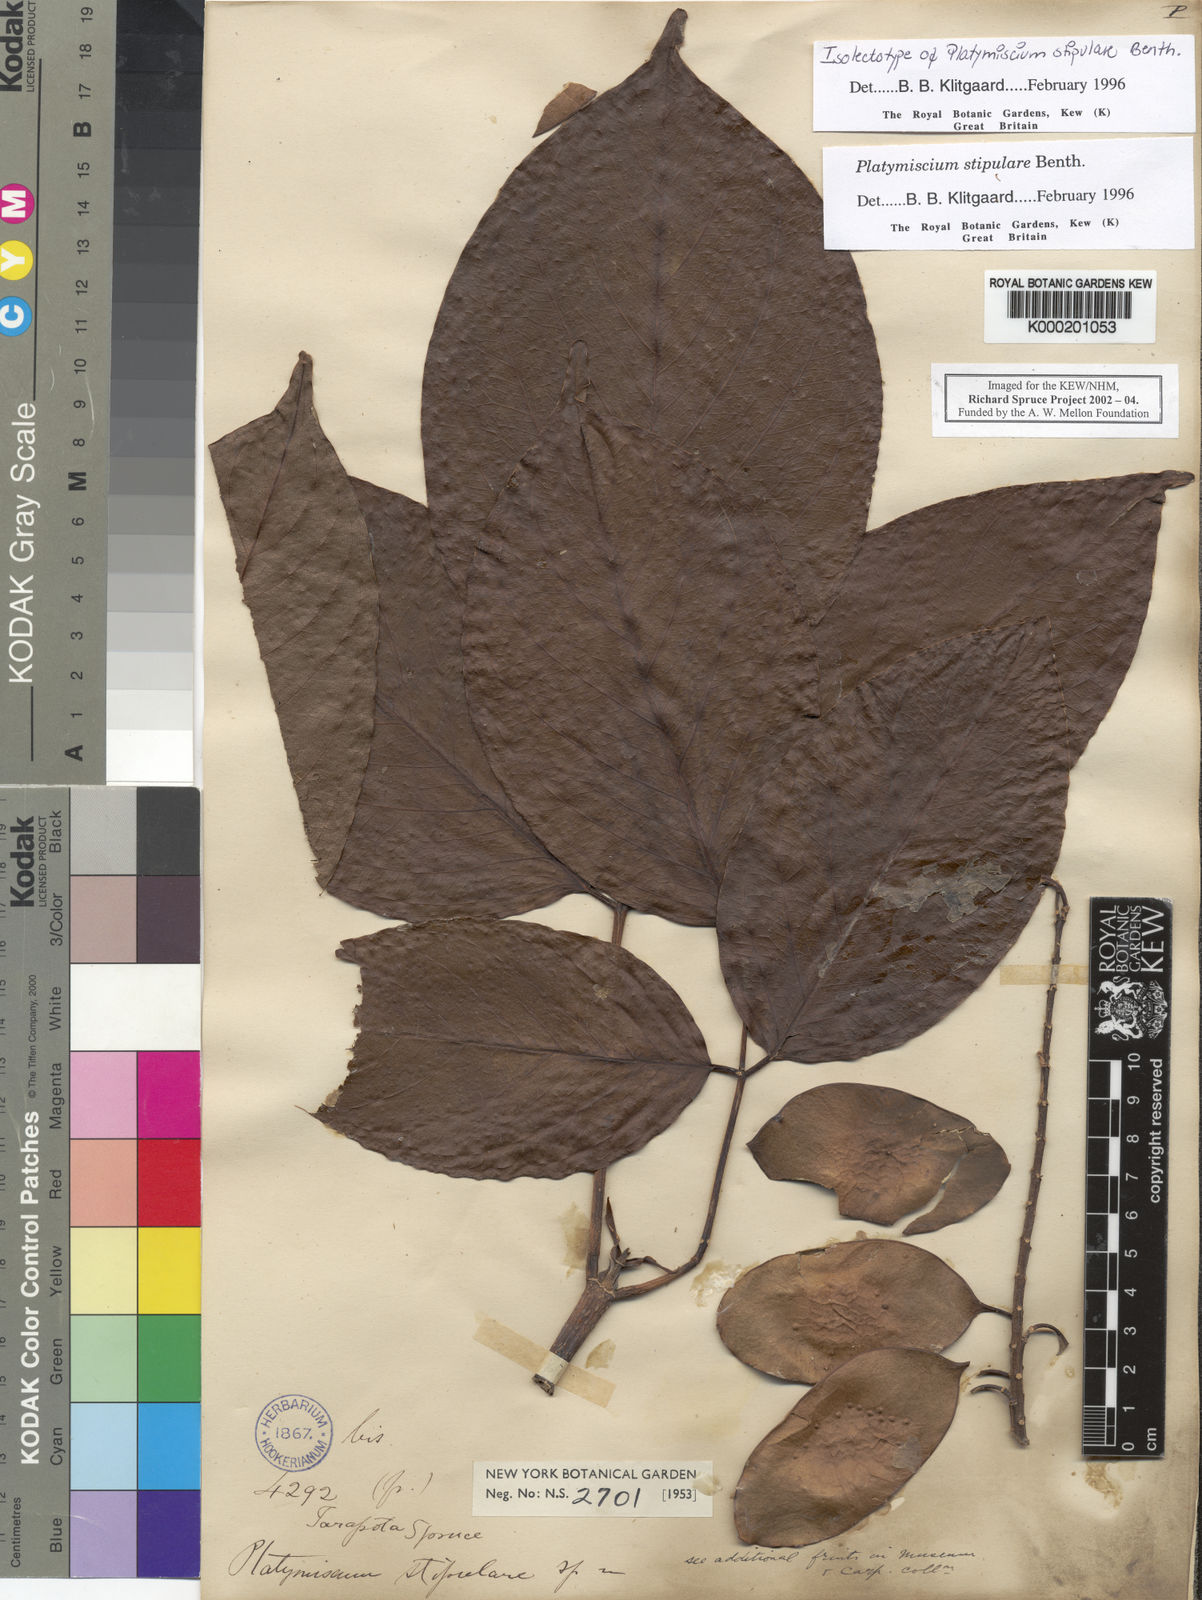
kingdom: Plantae
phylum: Tracheophyta
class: Magnoliopsida
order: Fabales
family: Fabaceae
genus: Platymiscium
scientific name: Platymiscium stipulare
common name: Legume
